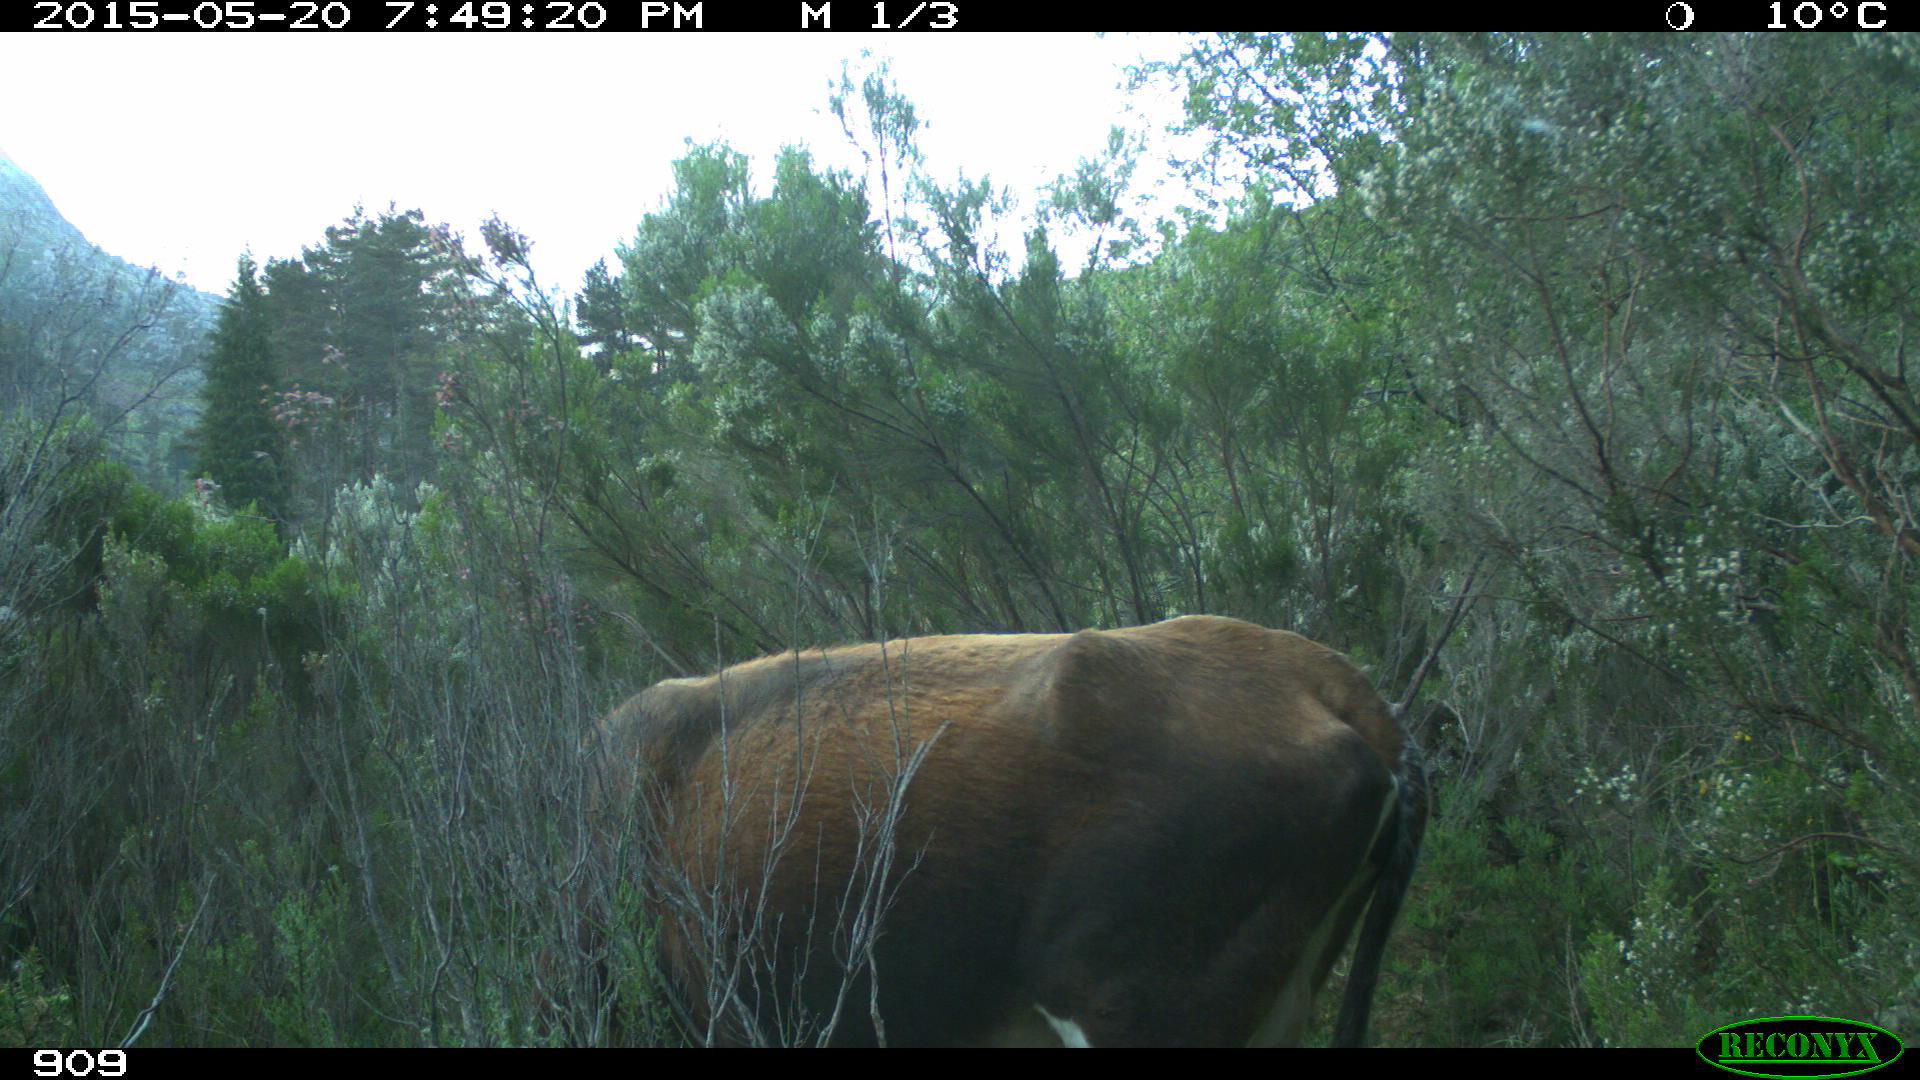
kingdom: Animalia
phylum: Chordata
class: Mammalia
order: Artiodactyla
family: Bovidae
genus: Bos
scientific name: Bos taurus
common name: Domesticated cattle
